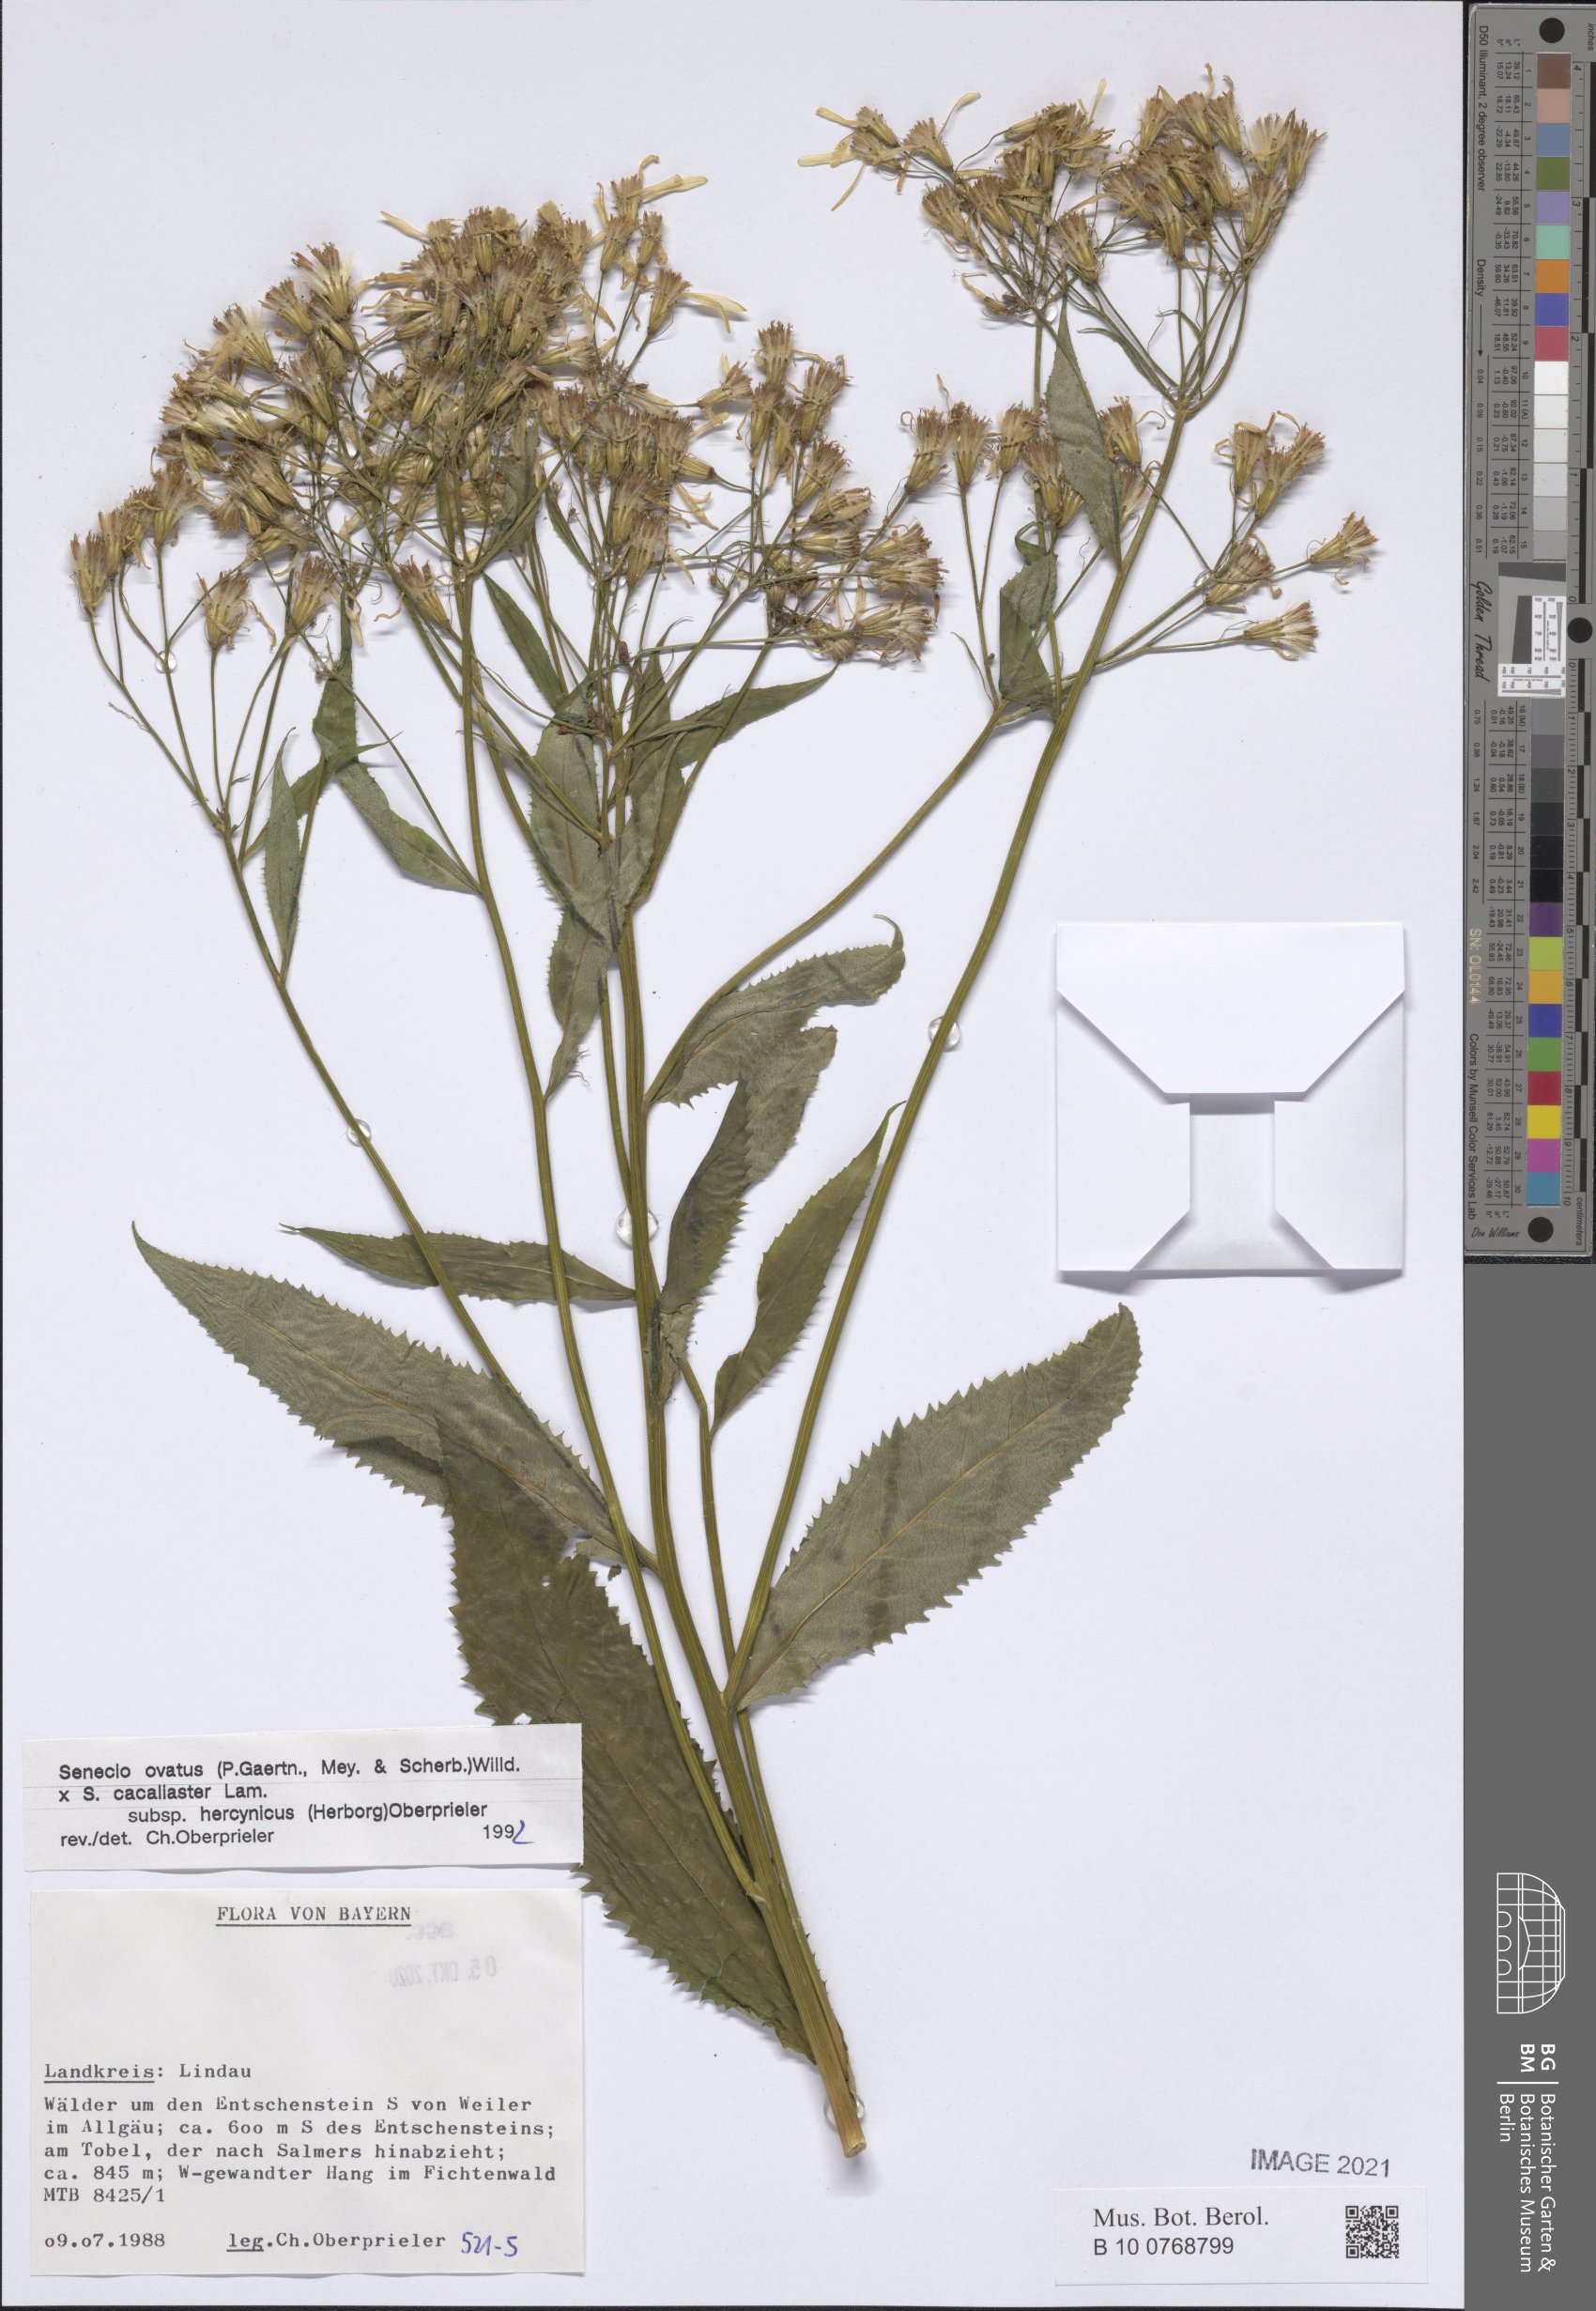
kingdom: Plantae
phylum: Tracheophyta
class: Magnoliopsida
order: Asterales
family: Asteraceae
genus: Senecio
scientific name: Senecio ovatus
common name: Wood ragwort
